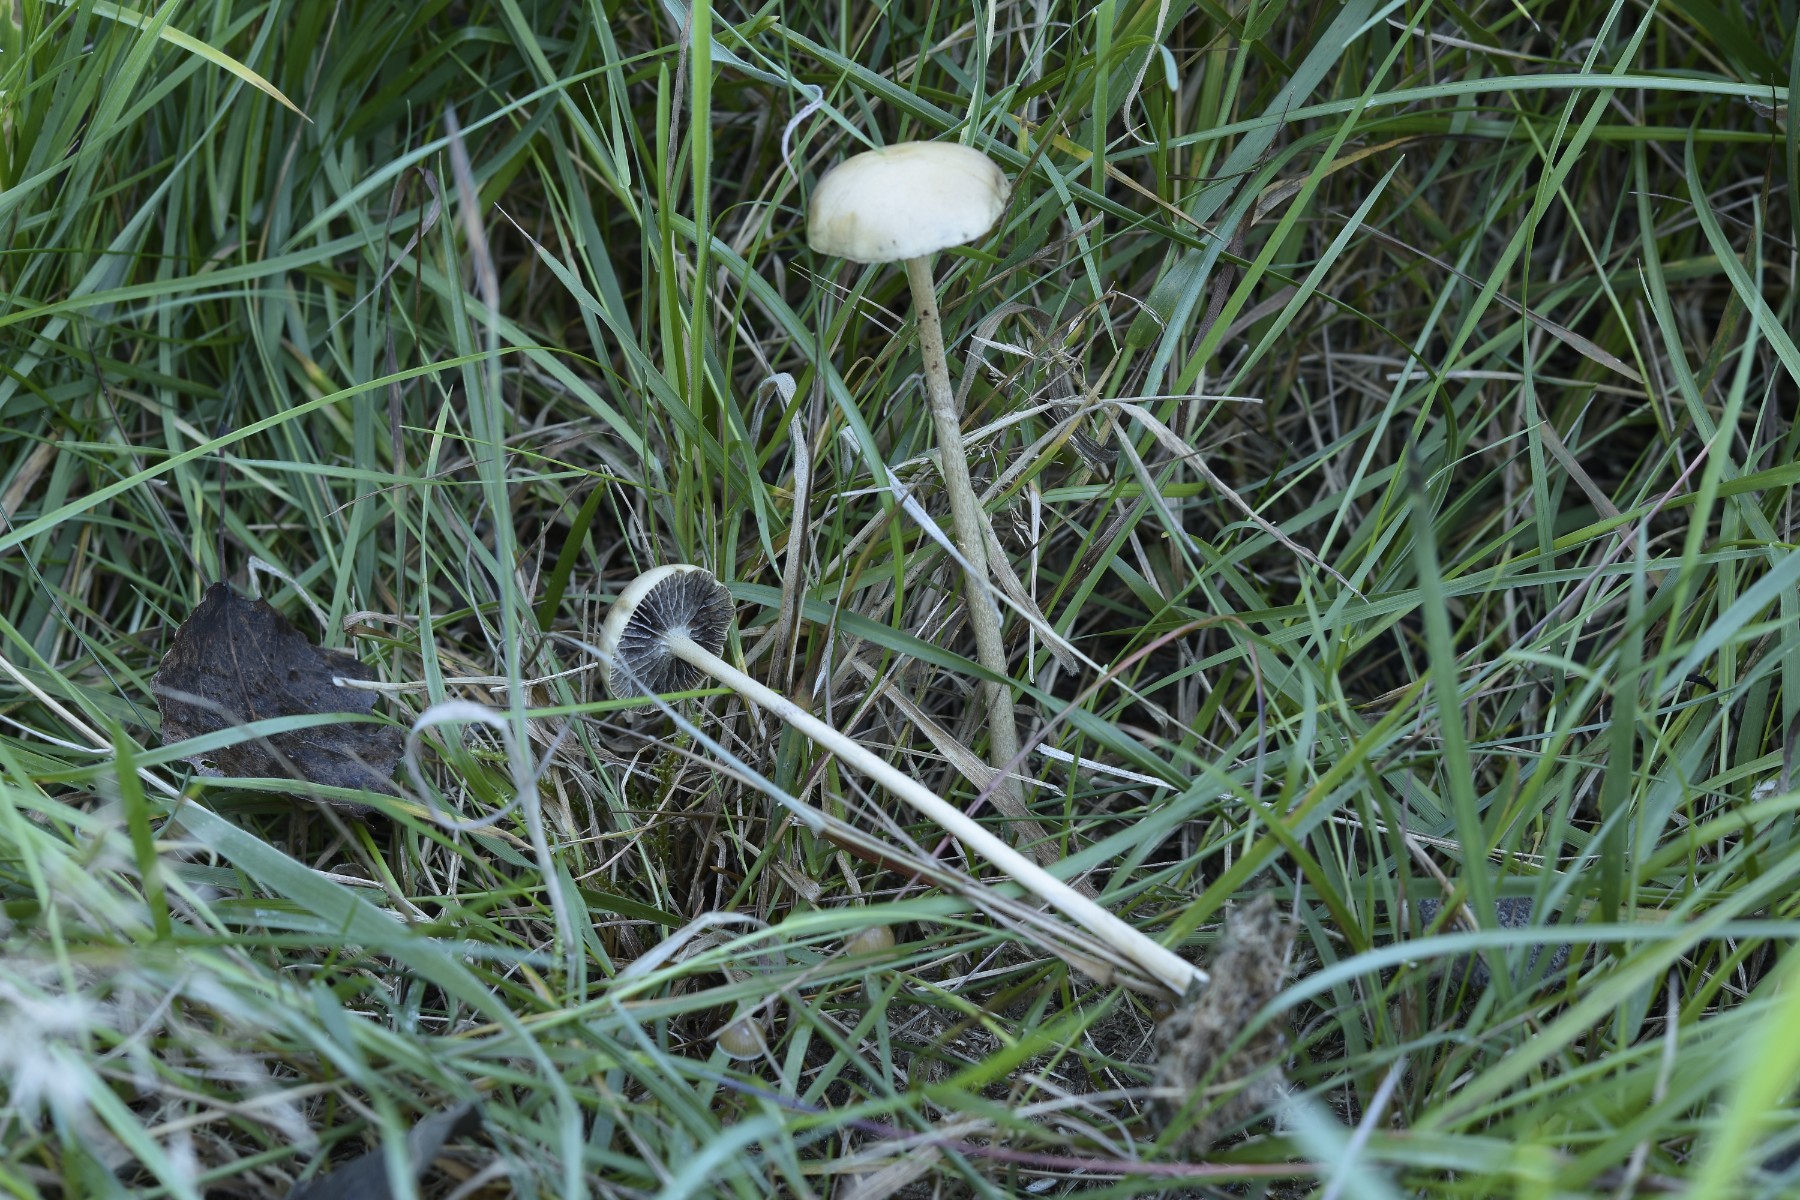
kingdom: Fungi
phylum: Basidiomycota
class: Agaricomycetes
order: Agaricales
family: Strophariaceae
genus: Protostropharia
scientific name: Protostropharia semiglobata
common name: halvkugleformet bredblad
